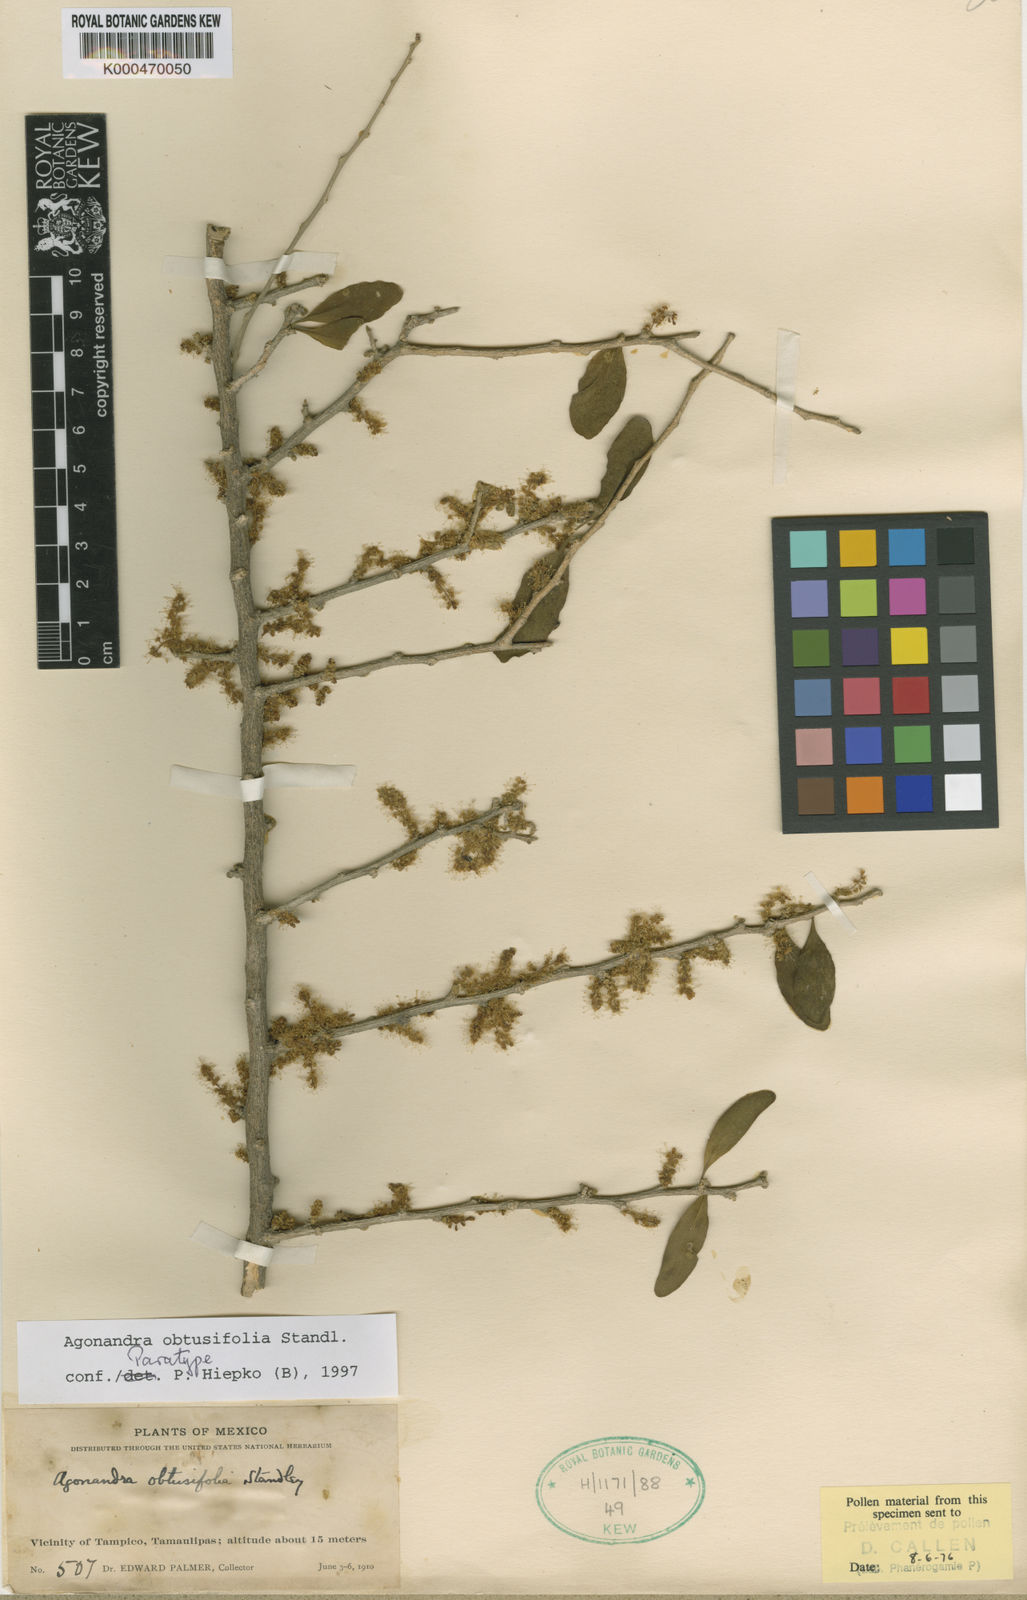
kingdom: Plantae
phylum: Tracheophyta
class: Magnoliopsida
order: Santalales
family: Opiliaceae
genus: Agonandra
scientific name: Agonandra obtusifolia
